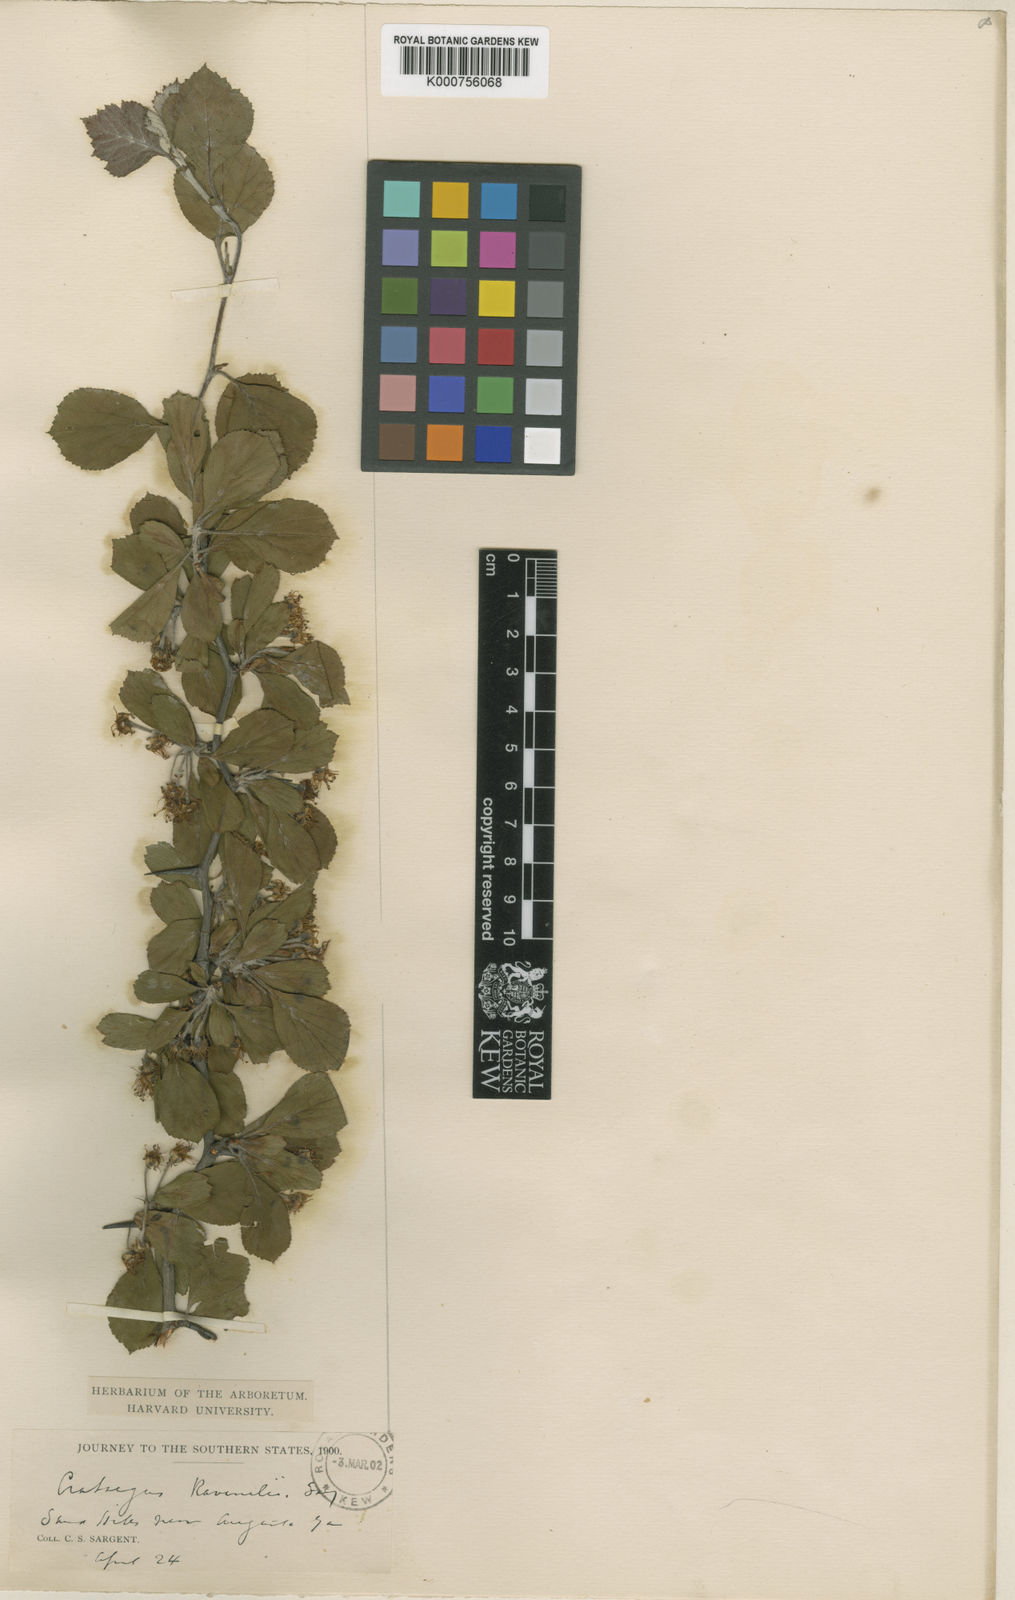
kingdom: Plantae
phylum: Tracheophyta
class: Magnoliopsida
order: Rosales
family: Rosaceae
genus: Crataegus
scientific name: Crataegus alabamensis
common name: Alabama hawthorn
